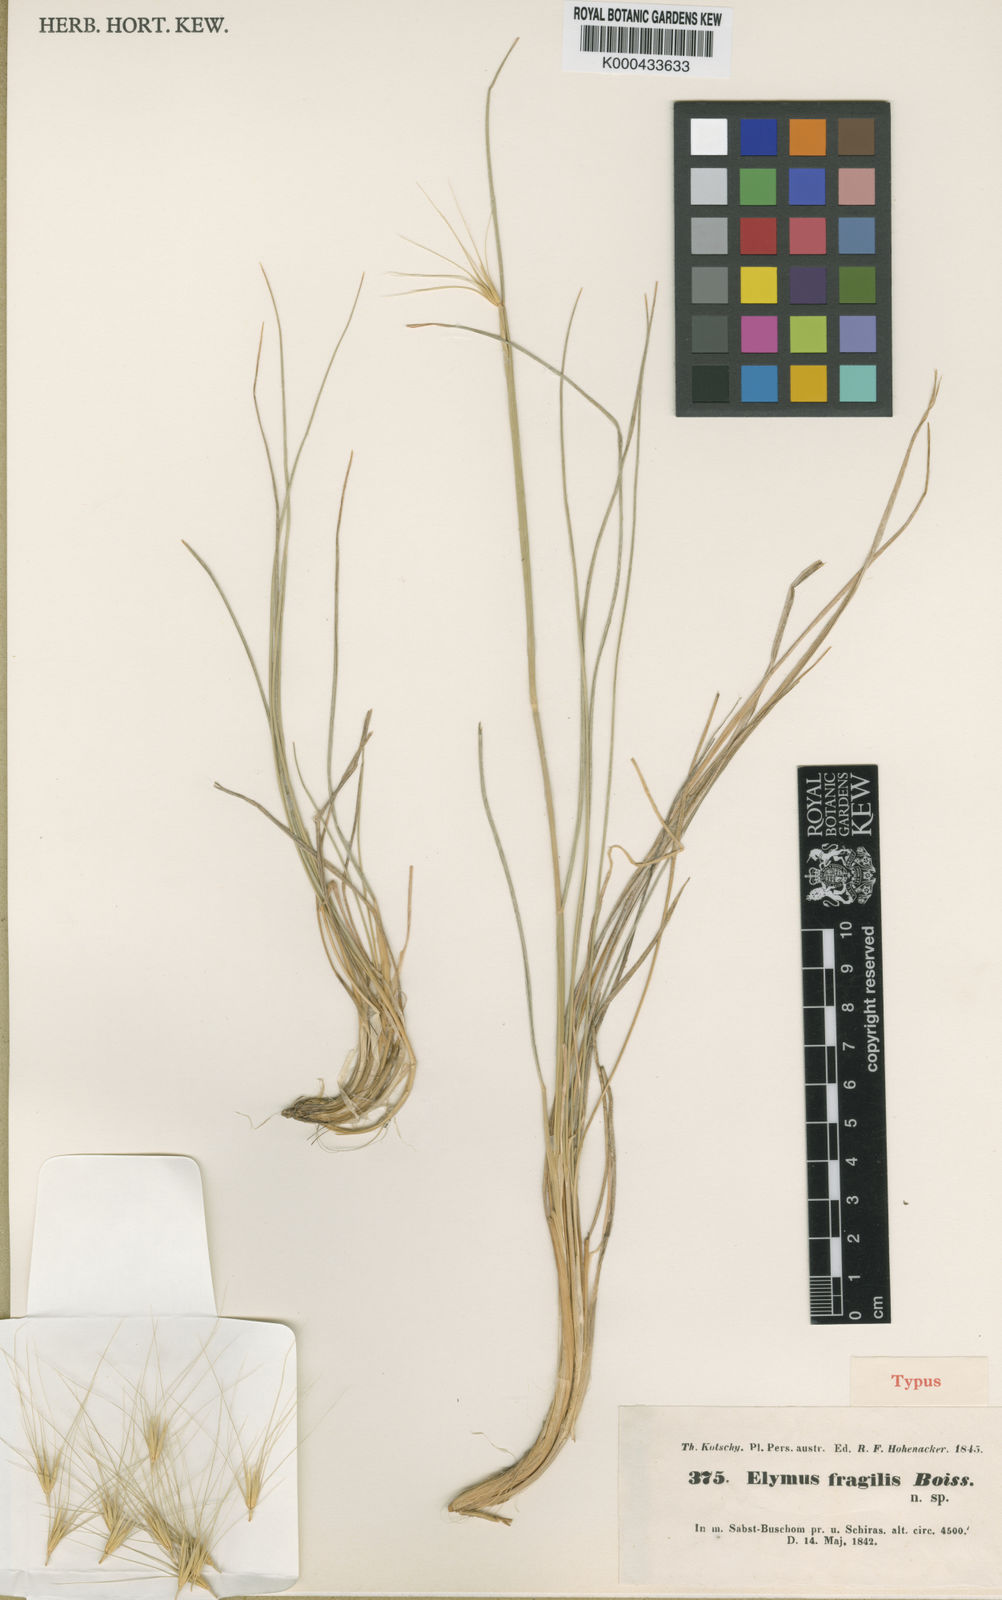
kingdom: Plantae
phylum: Tracheophyta
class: Liliopsida
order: Poales
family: Poaceae
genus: Psathyrostachys
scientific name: Psathyrostachys fragilis
